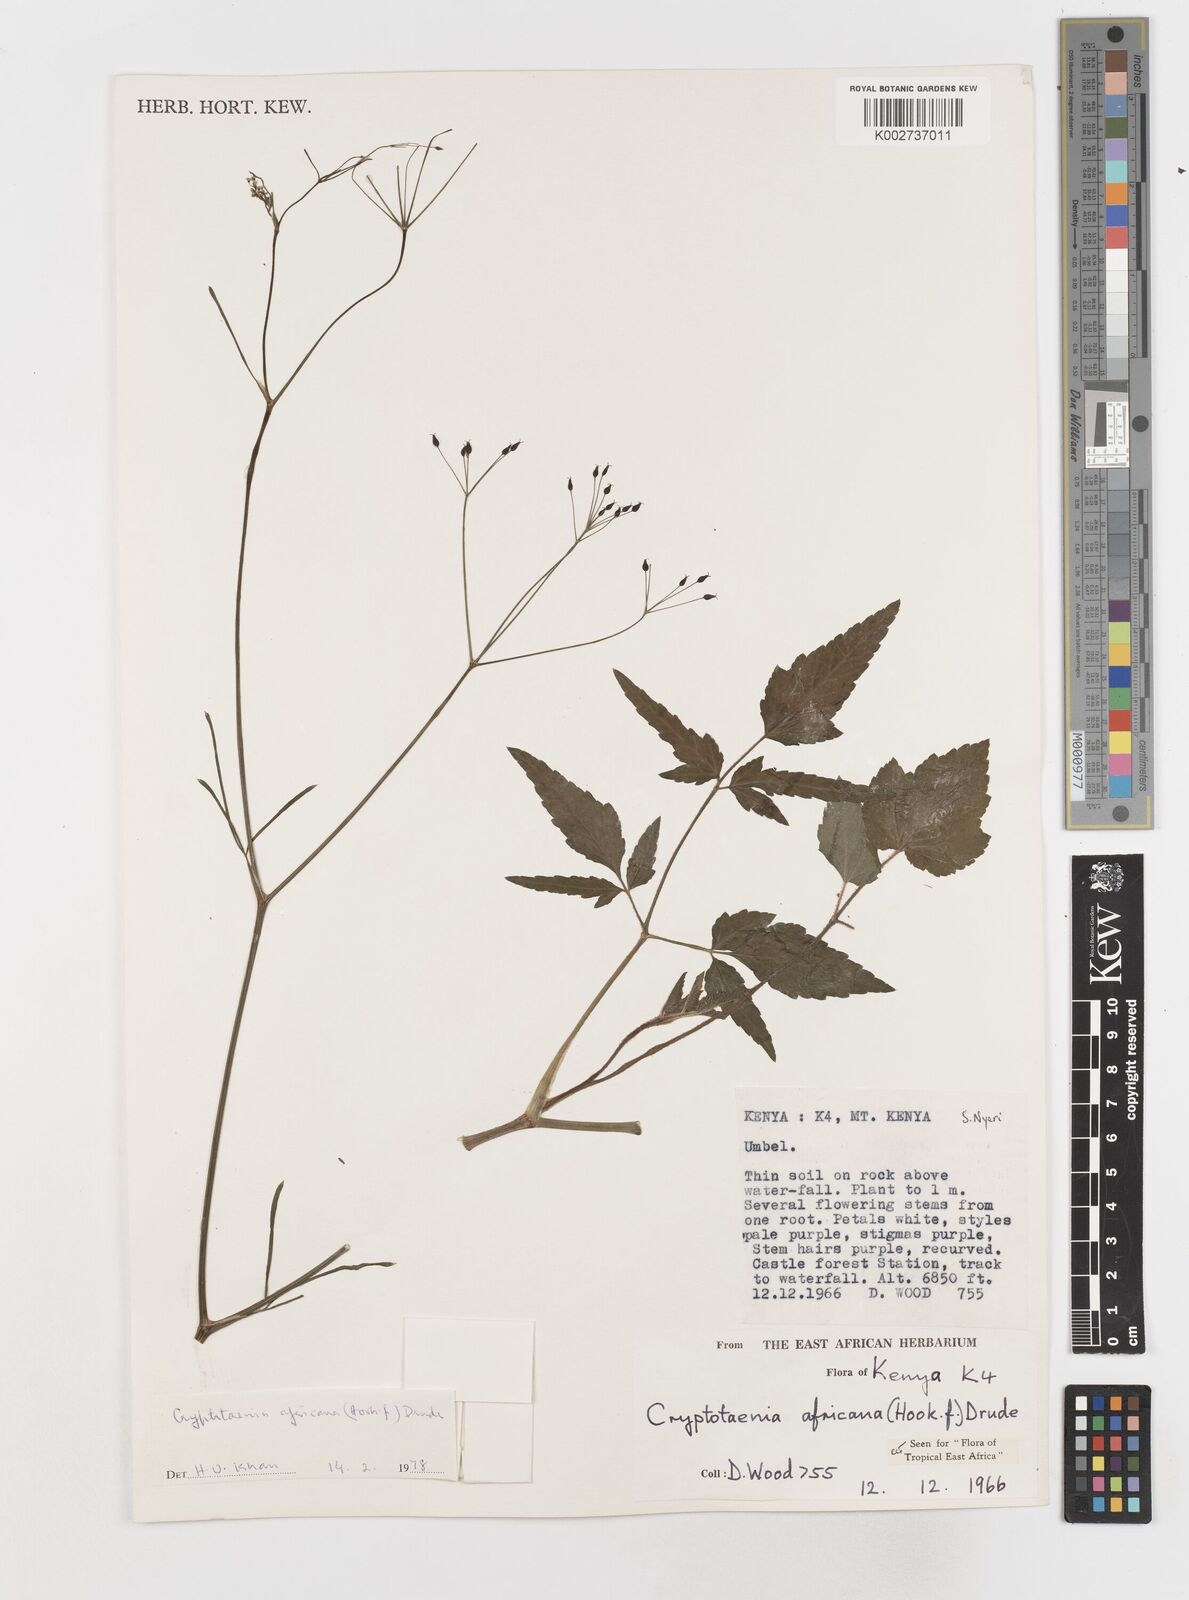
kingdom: Plantae
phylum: Tracheophyta
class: Magnoliopsida
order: Apiales
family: Apiaceae
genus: Cryptotaenia
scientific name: Cryptotaenia africana
